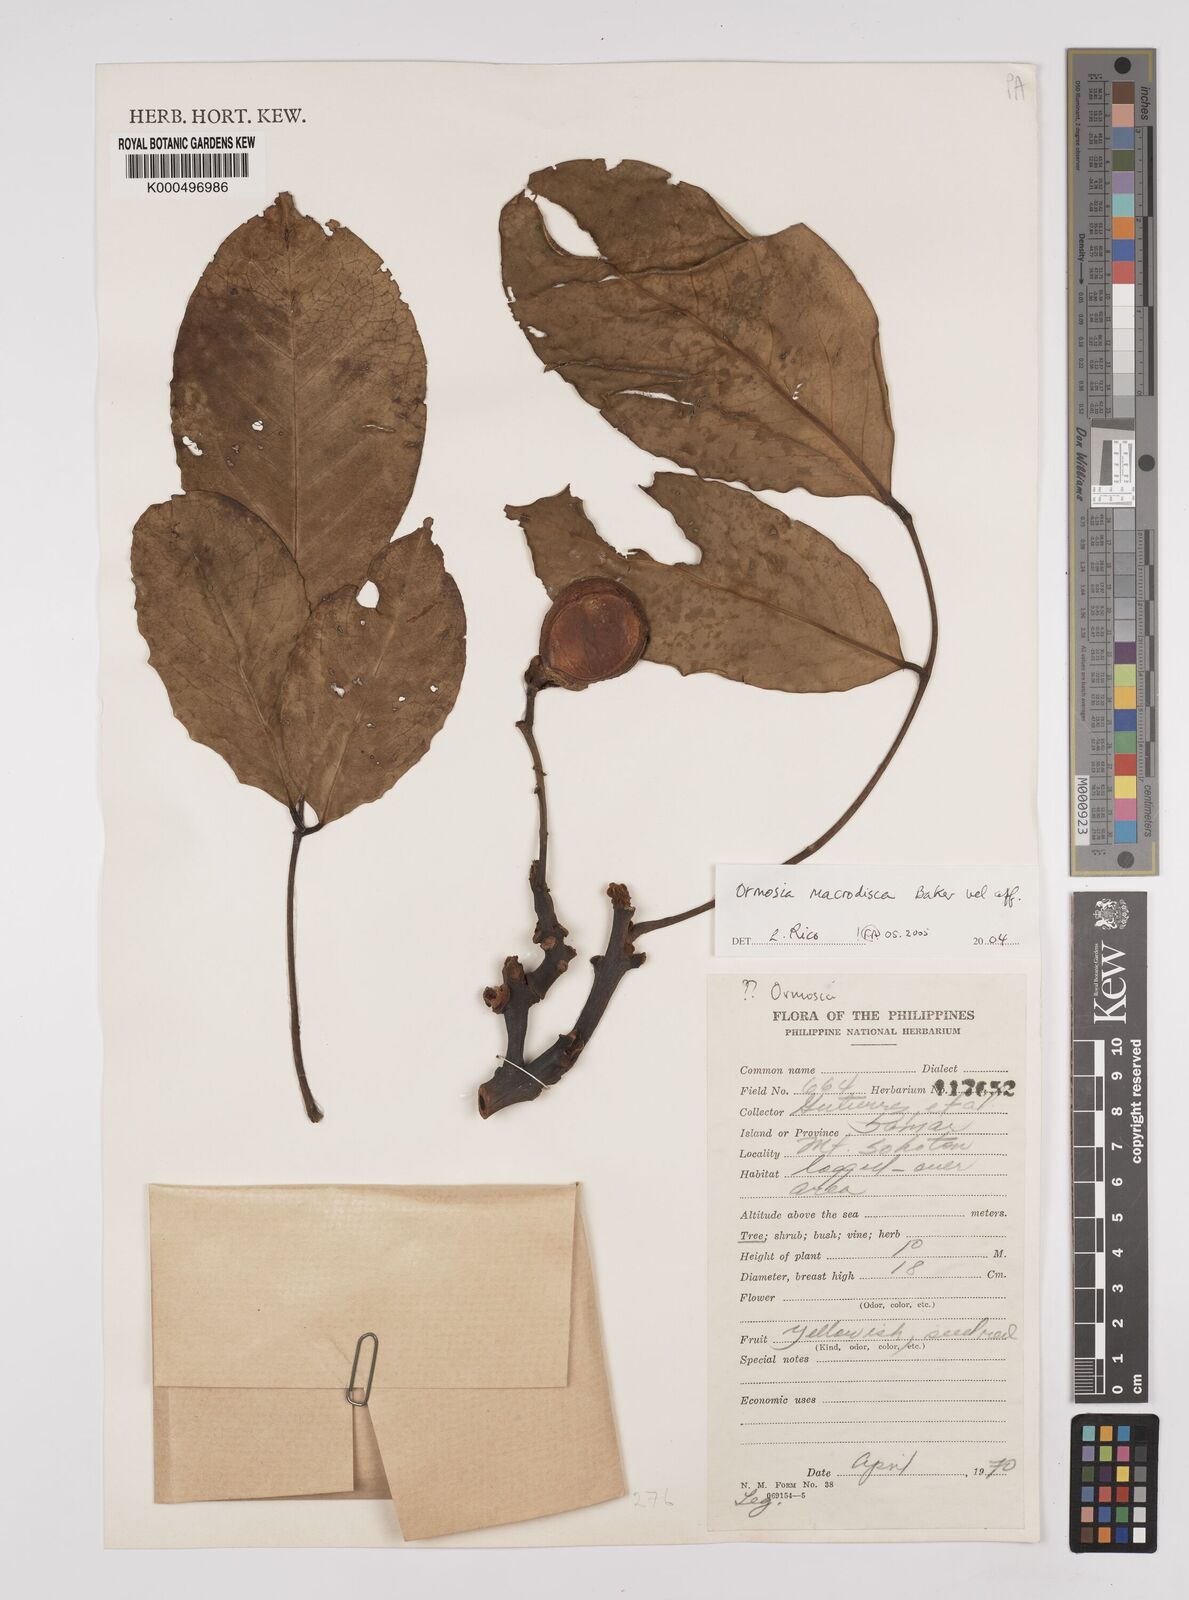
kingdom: Plantae
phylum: Tracheophyta
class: Magnoliopsida
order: Fabales
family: Fabaceae
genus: Ormosia
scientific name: Ormosia macrodisca
